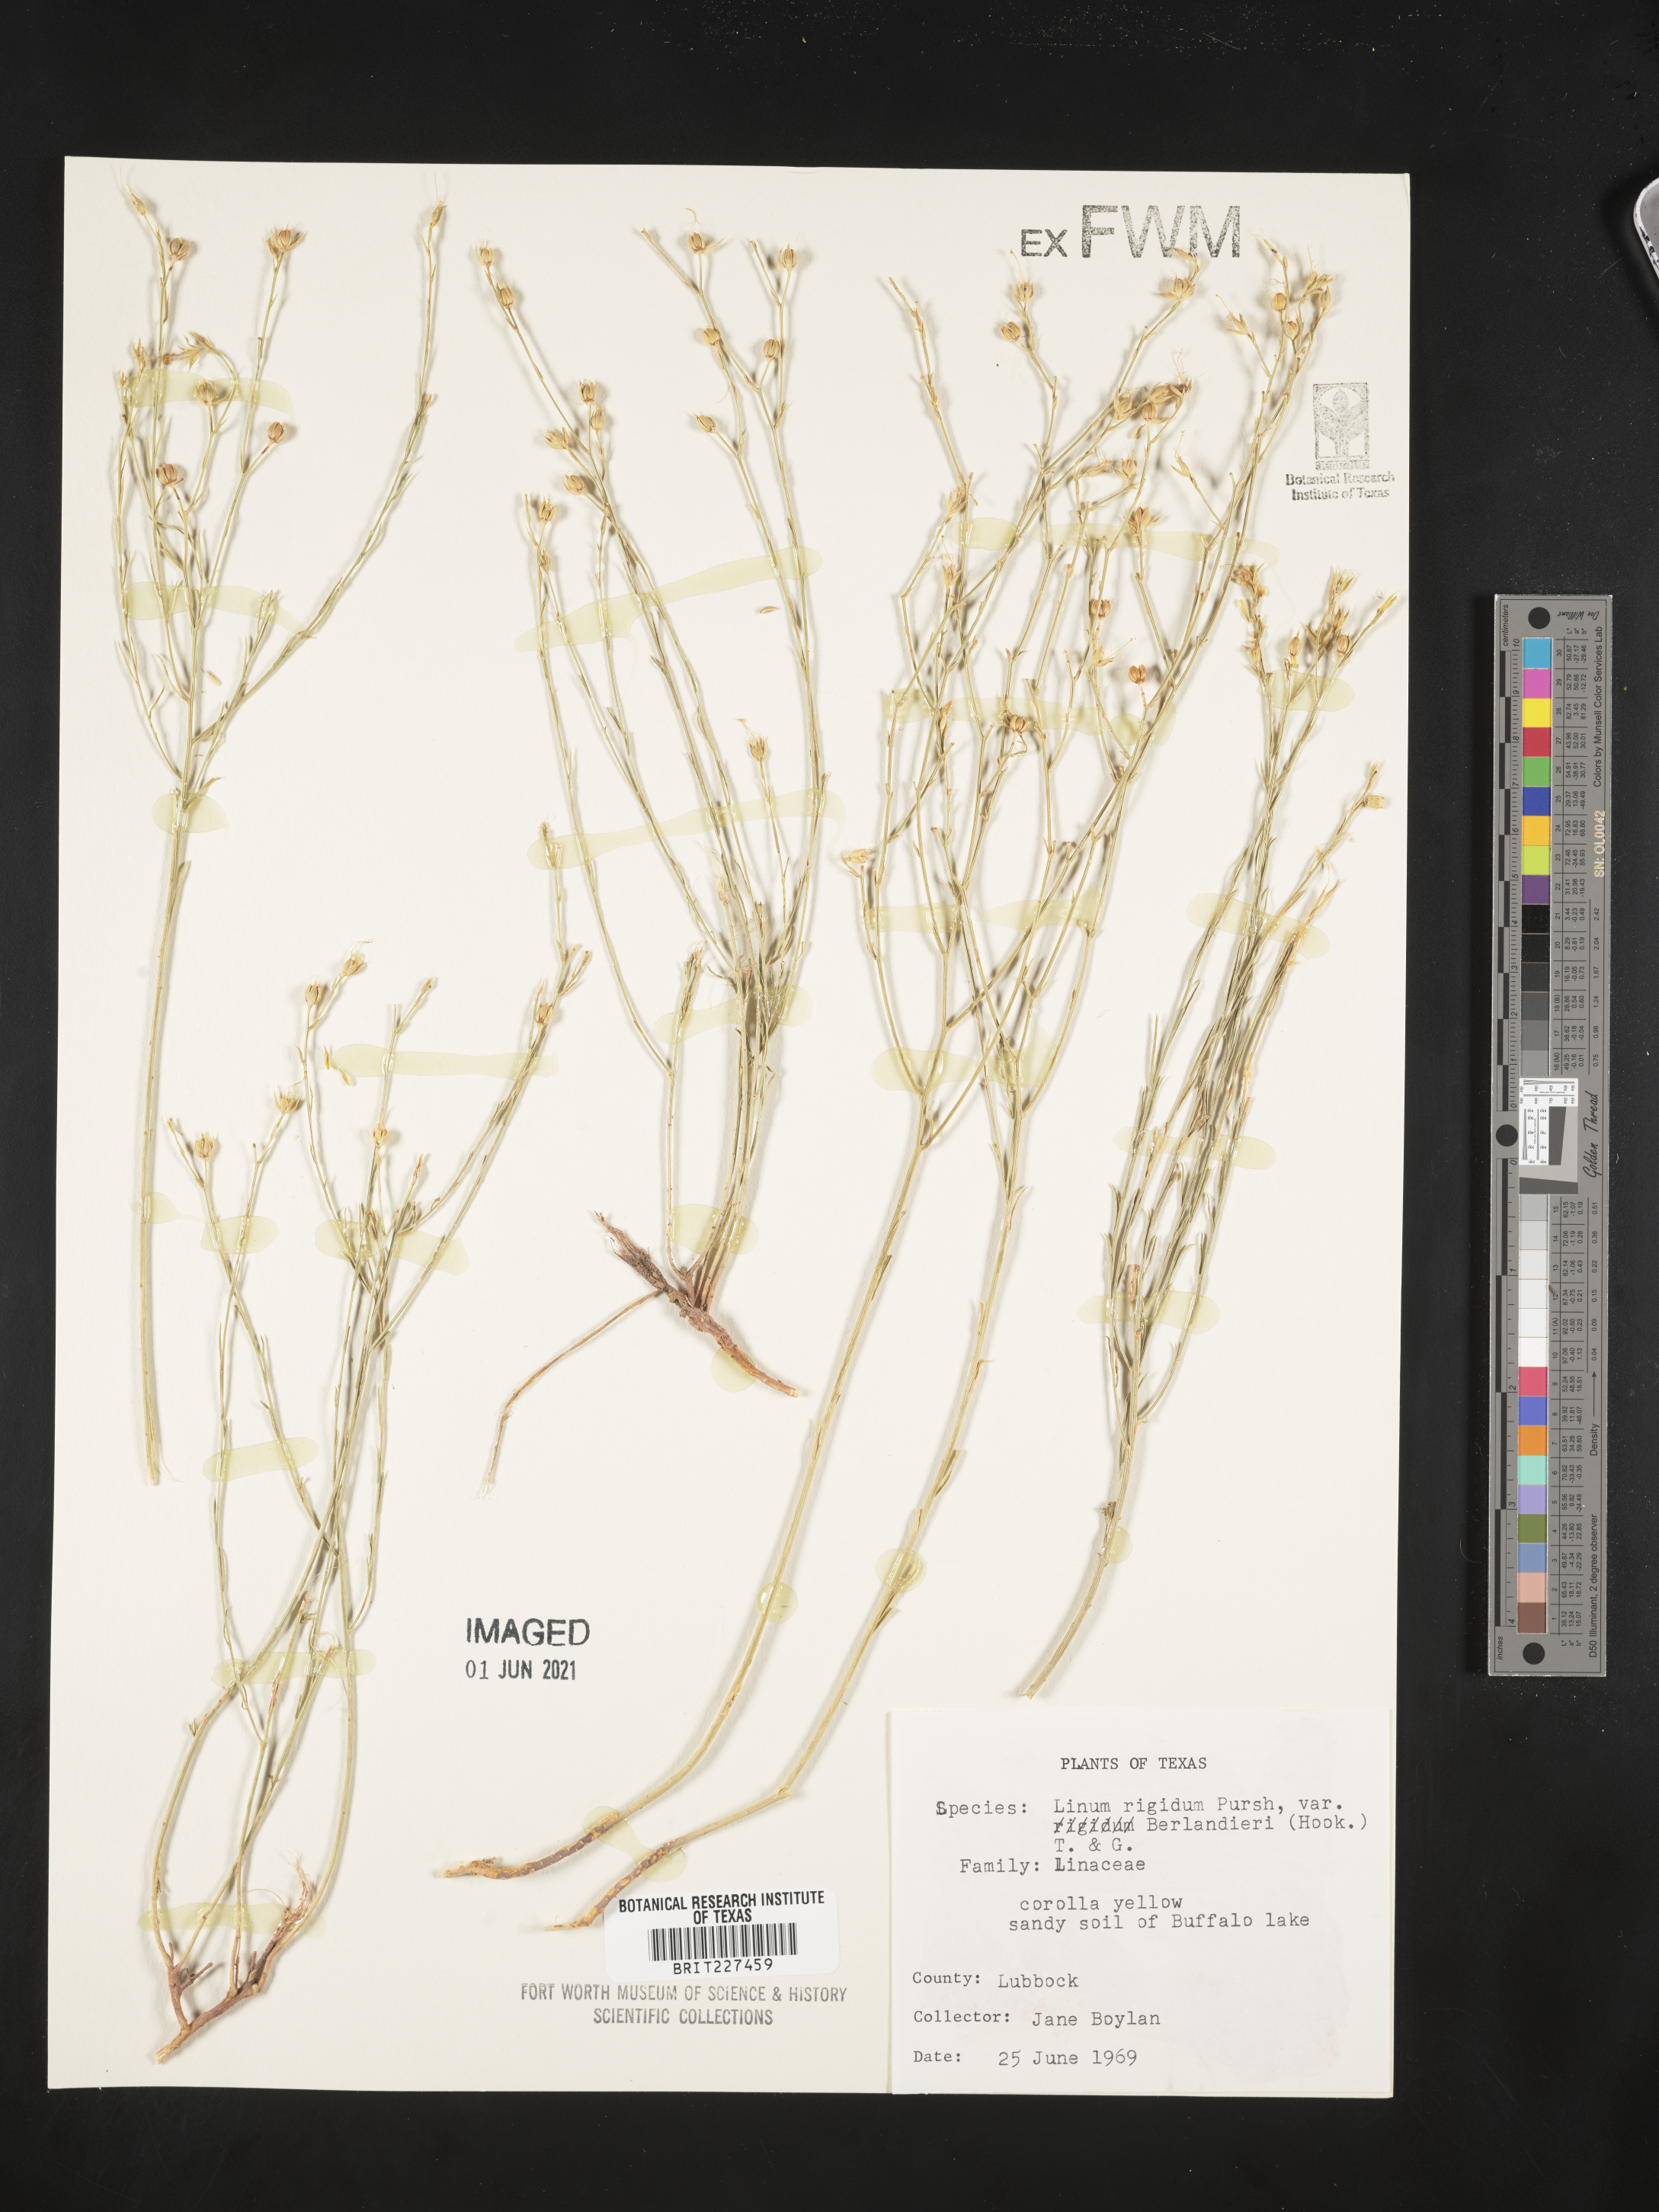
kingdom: Plantae
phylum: Tracheophyta
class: Magnoliopsida
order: Malpighiales
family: Linaceae
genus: Linum
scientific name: Linum rigidum
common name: Stiff-stem flax
